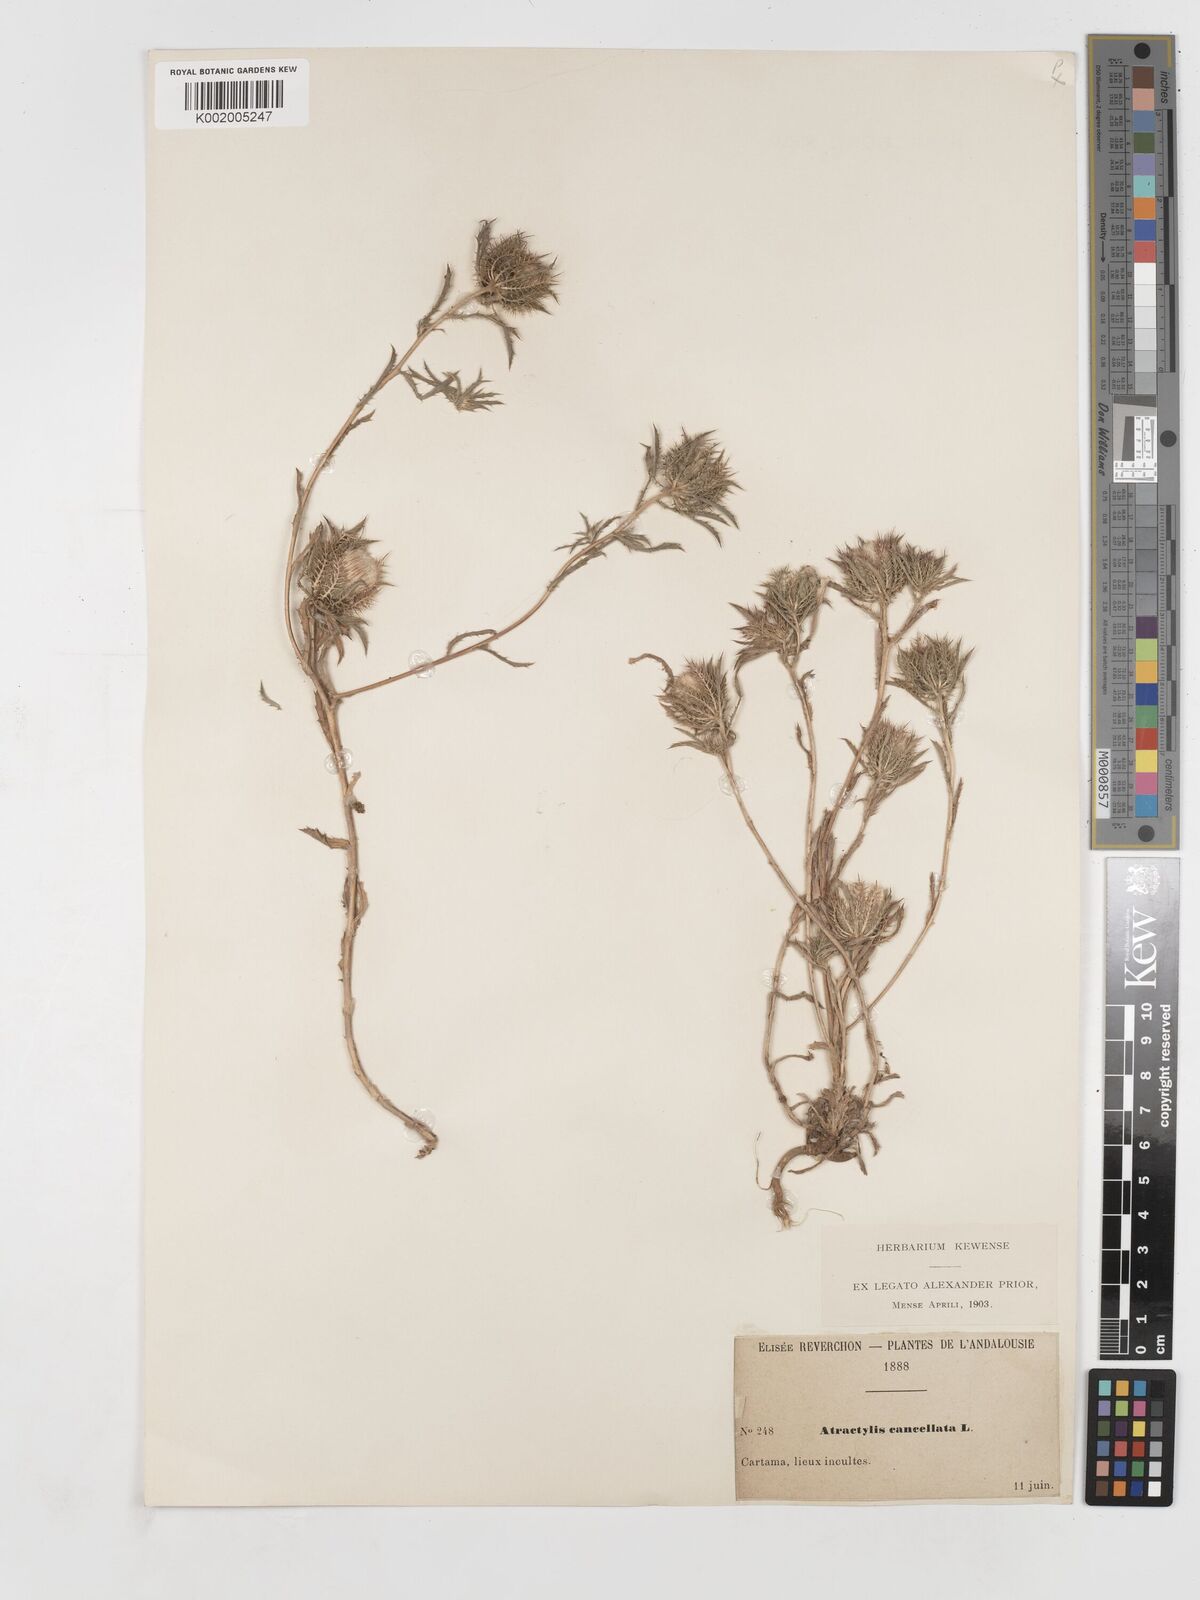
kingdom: Plantae
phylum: Tracheophyta
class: Magnoliopsida
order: Asterales
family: Asteraceae
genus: Atractylis
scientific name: Atractylis cancellata
